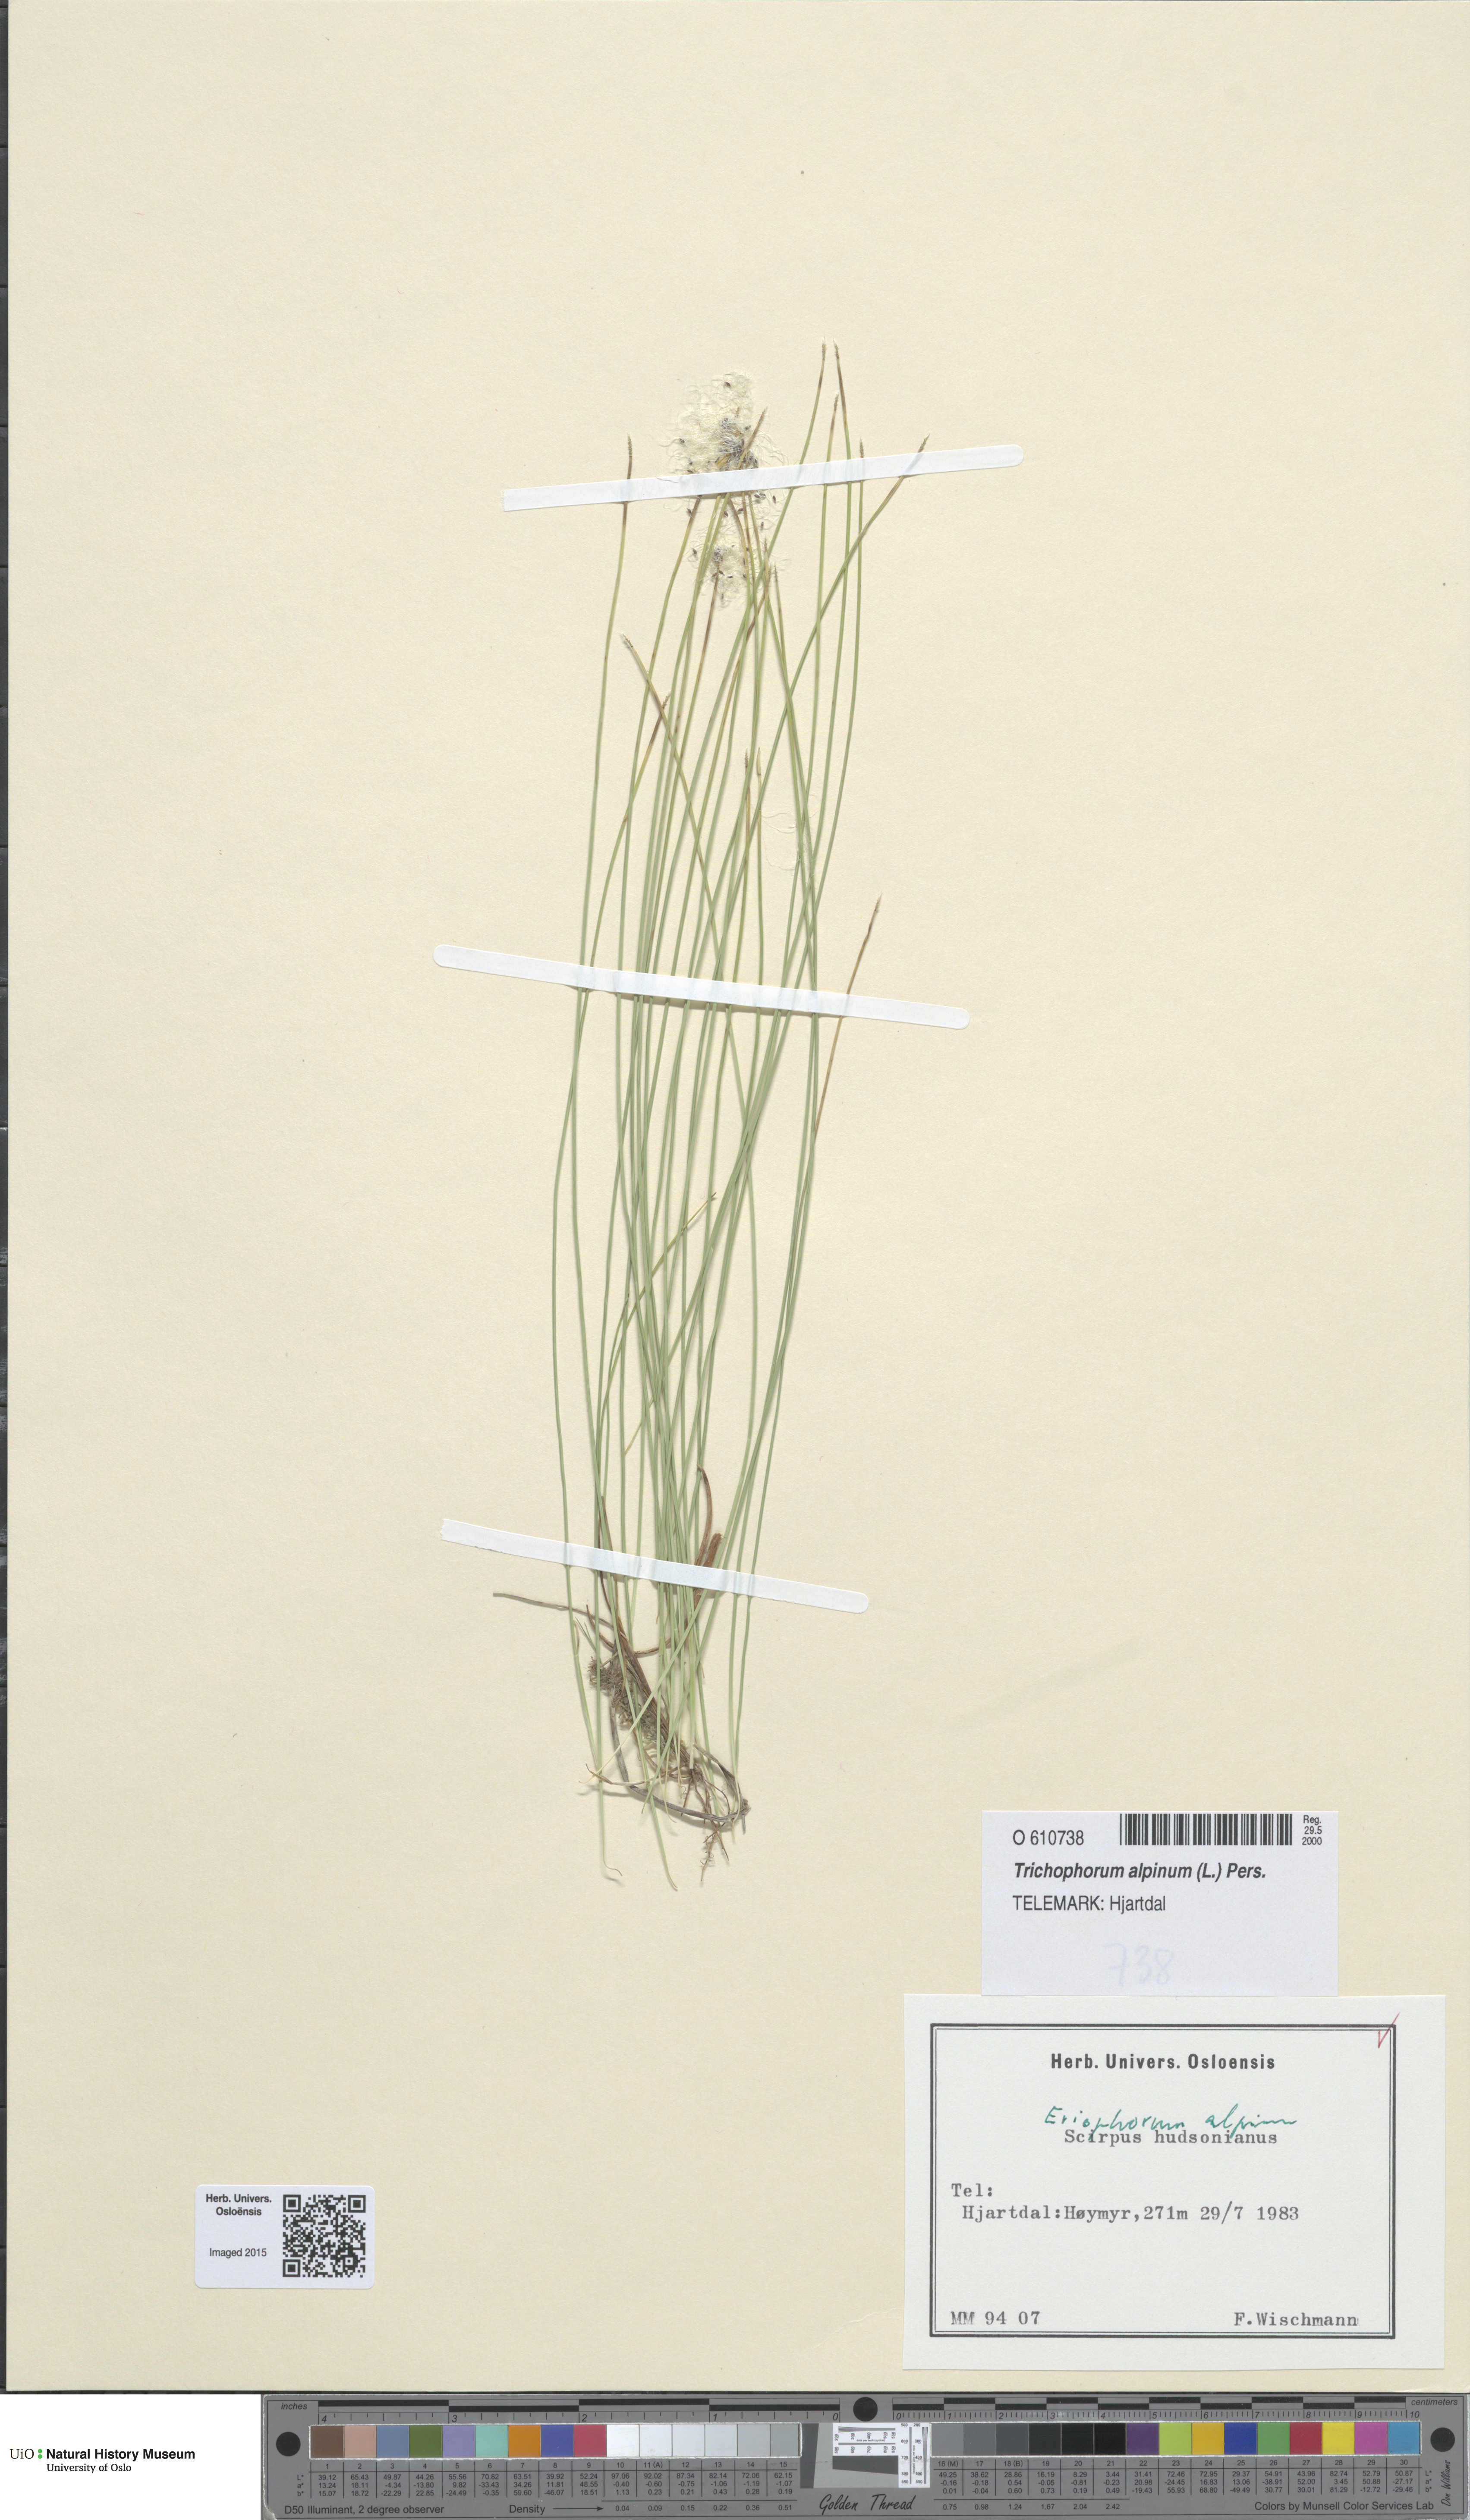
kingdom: Plantae
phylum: Tracheophyta
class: Liliopsida
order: Poales
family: Cyperaceae
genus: Trichophorum
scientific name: Trichophorum alpinum
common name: Alpine bulrush
